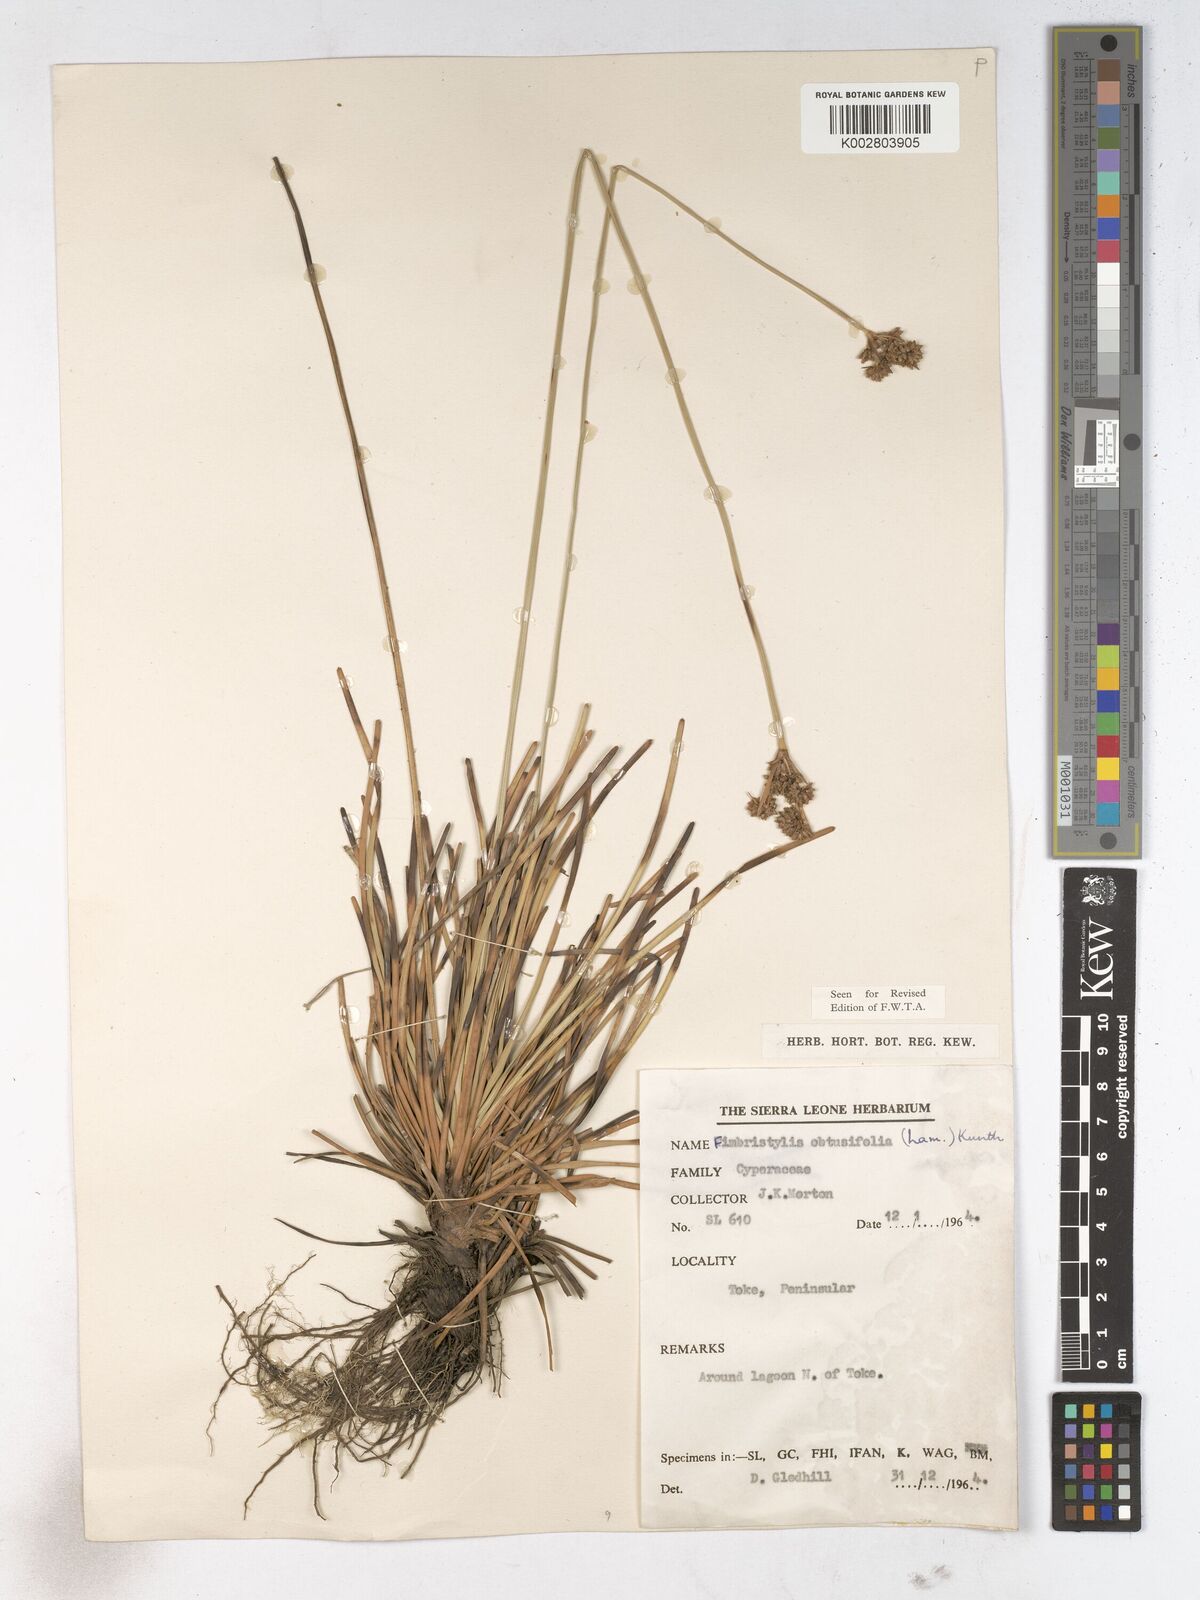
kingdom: Plantae
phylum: Tracheophyta
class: Liliopsida
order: Poales
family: Cyperaceae
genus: Fimbristylis
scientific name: Fimbristylis cymosa
